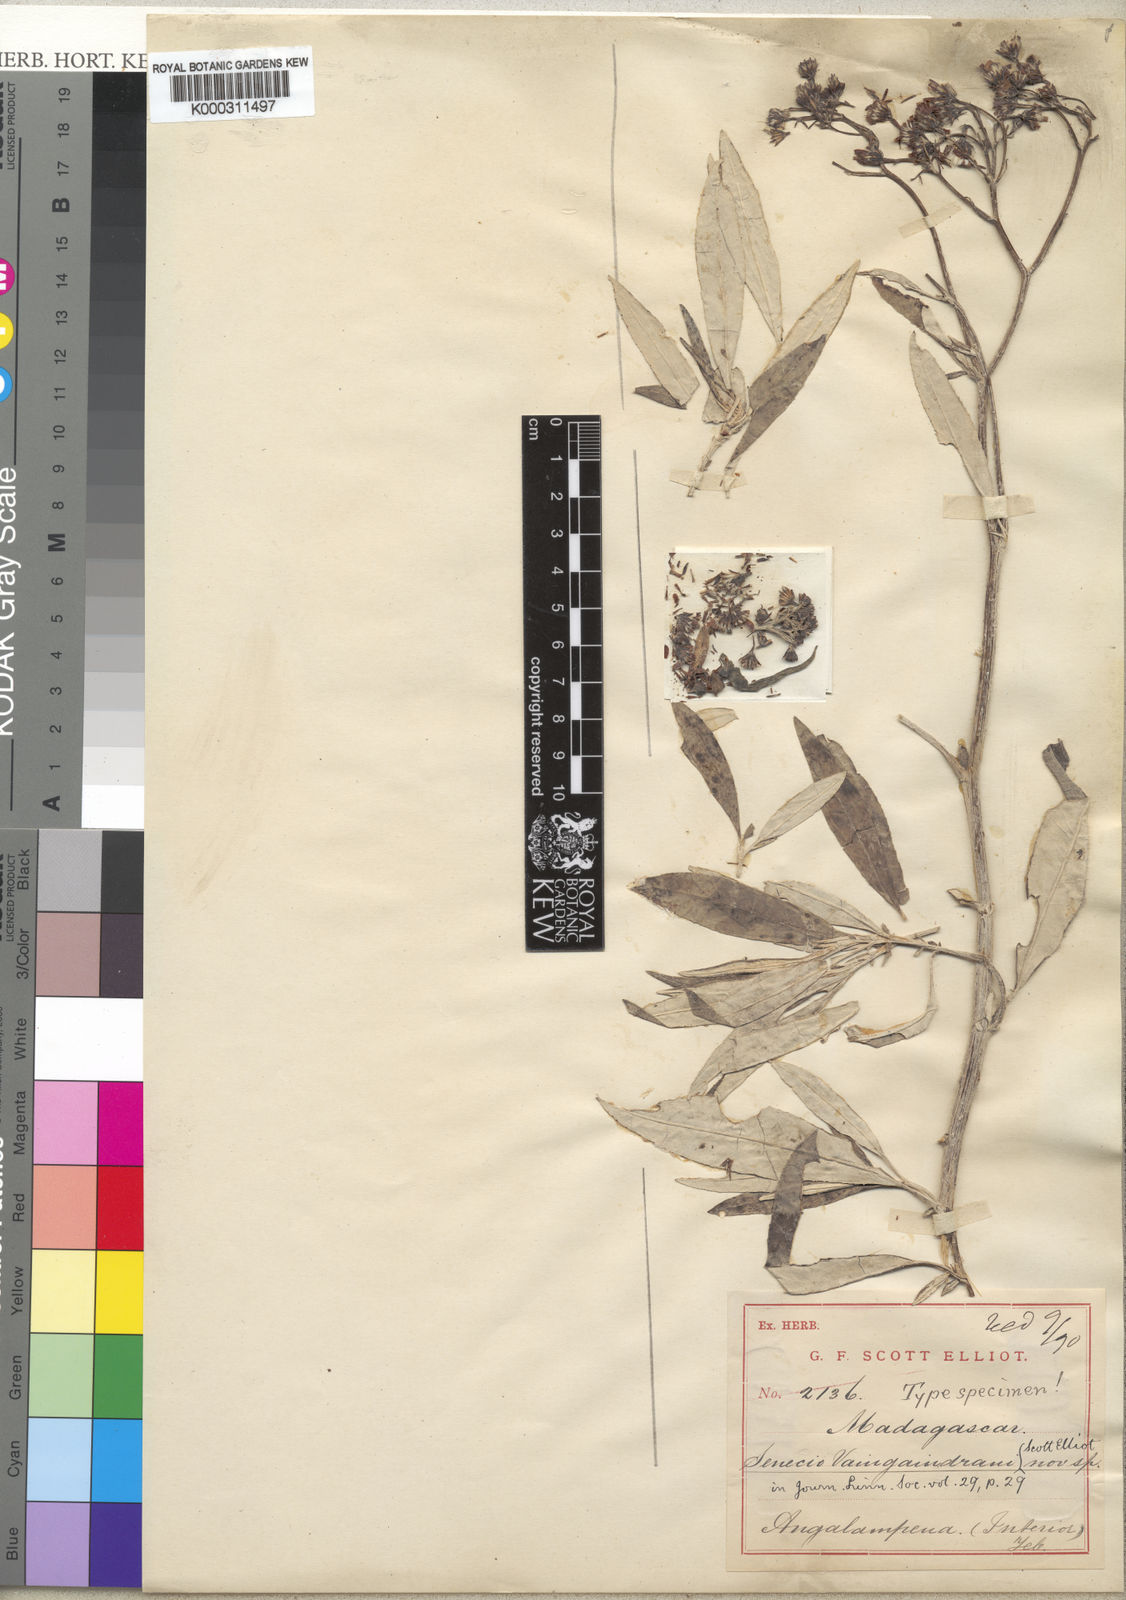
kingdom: Plantae
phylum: Tracheophyta
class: Magnoliopsida
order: Asterales
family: Asteraceae
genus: Senecio
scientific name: Senecio vaingaindrani
